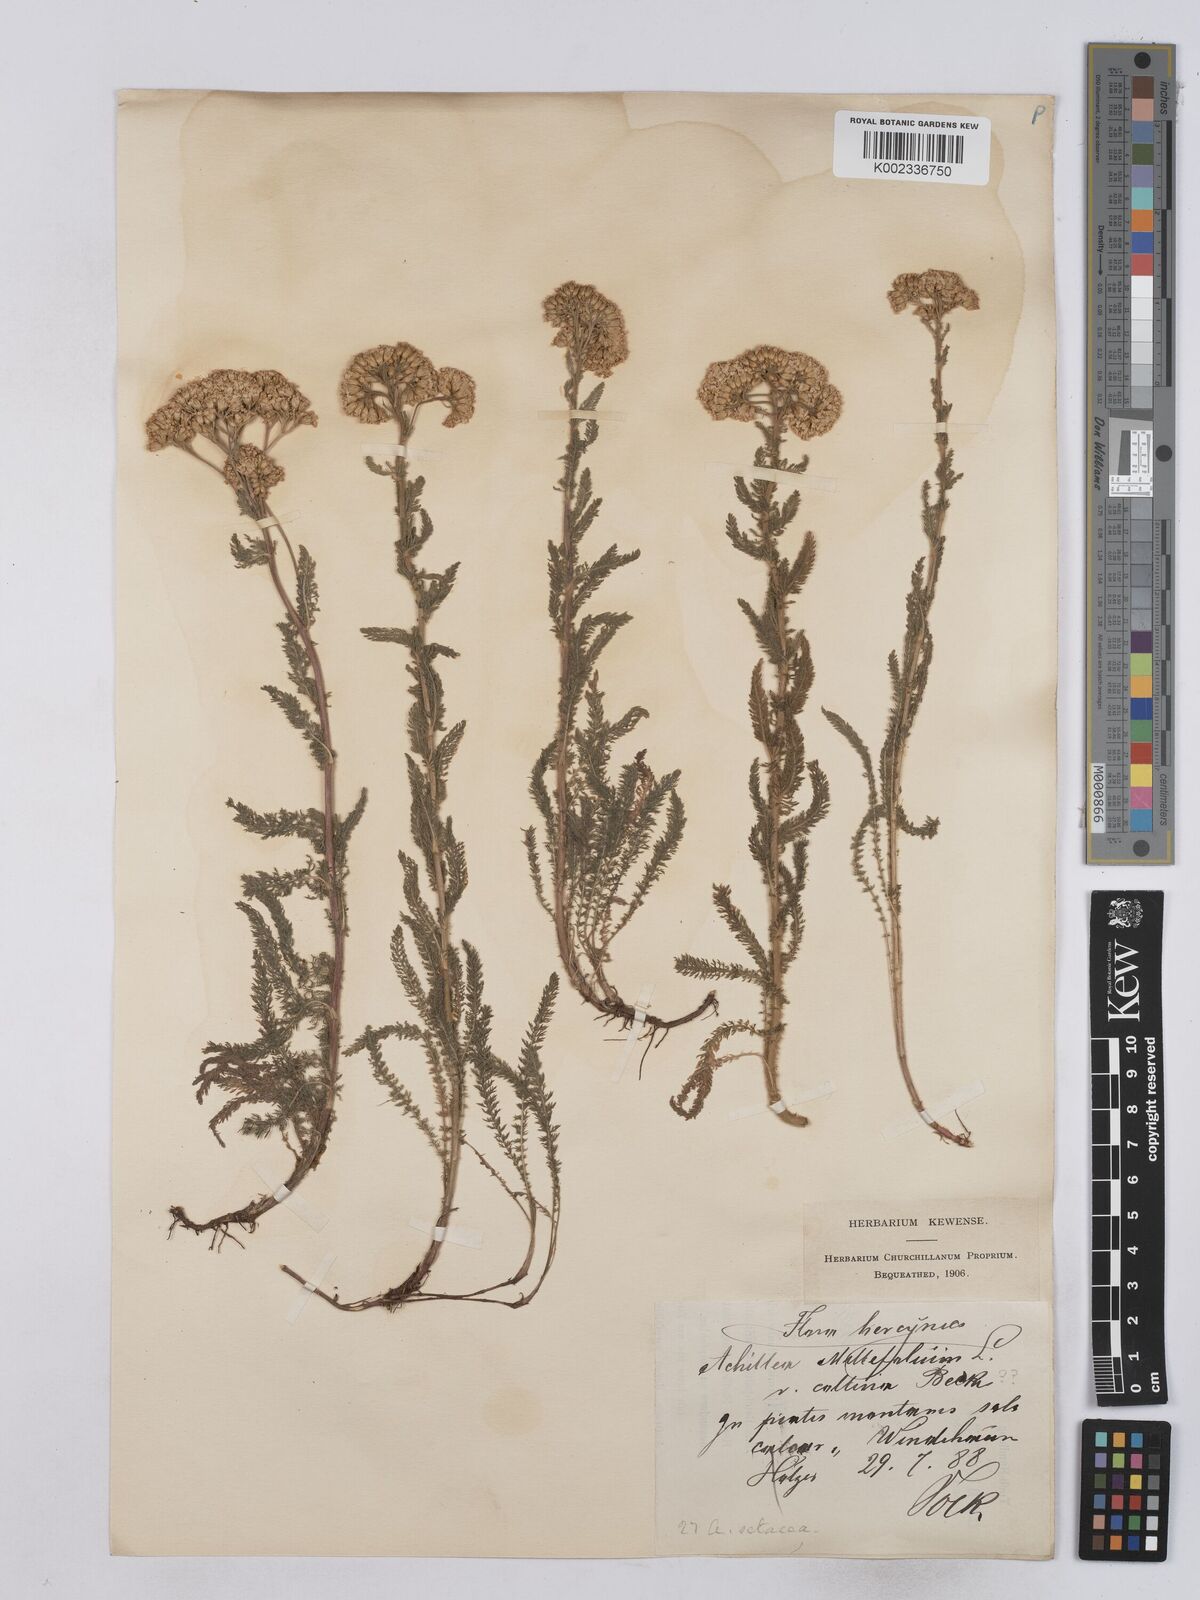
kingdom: Plantae
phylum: Tracheophyta
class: Magnoliopsida
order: Asterales
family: Asteraceae
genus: Achillea
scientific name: Achillea setacea
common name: Bristly yarrow
